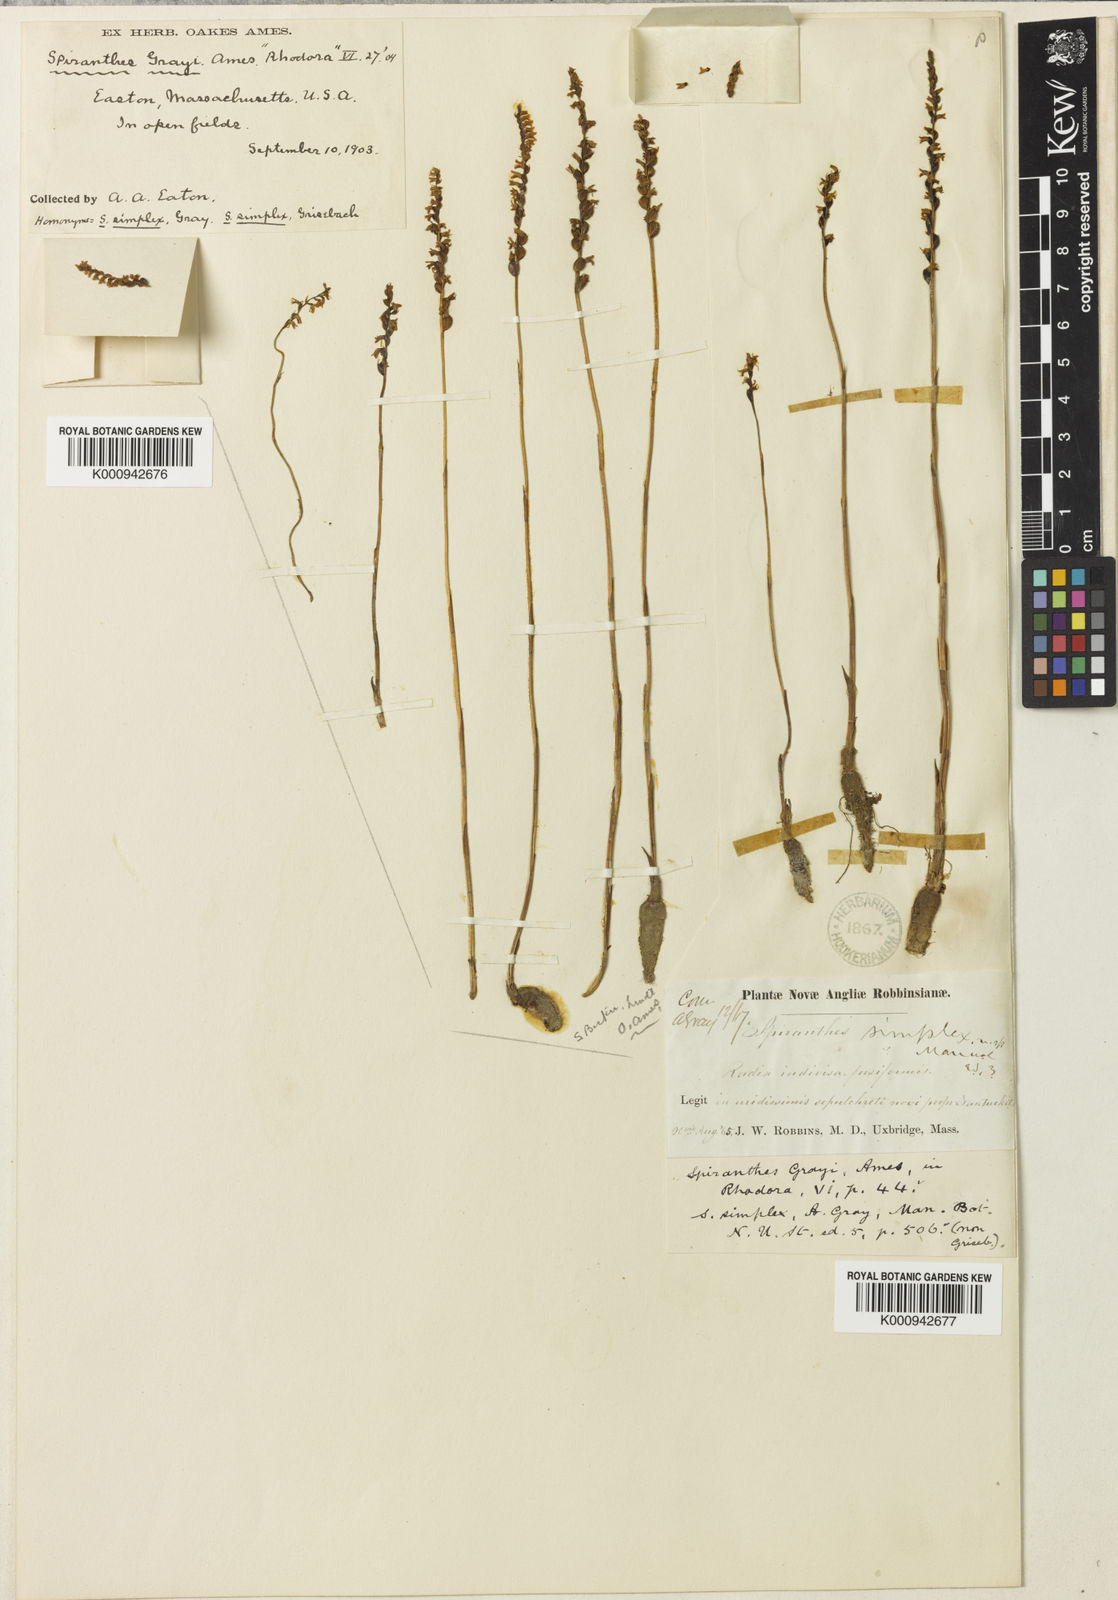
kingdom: Plantae
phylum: Tracheophyta
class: Liliopsida
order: Asparagales
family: Orchidaceae
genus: Spiranthes
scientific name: Spiranthes tuberosa
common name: Little ladies'-tresses
